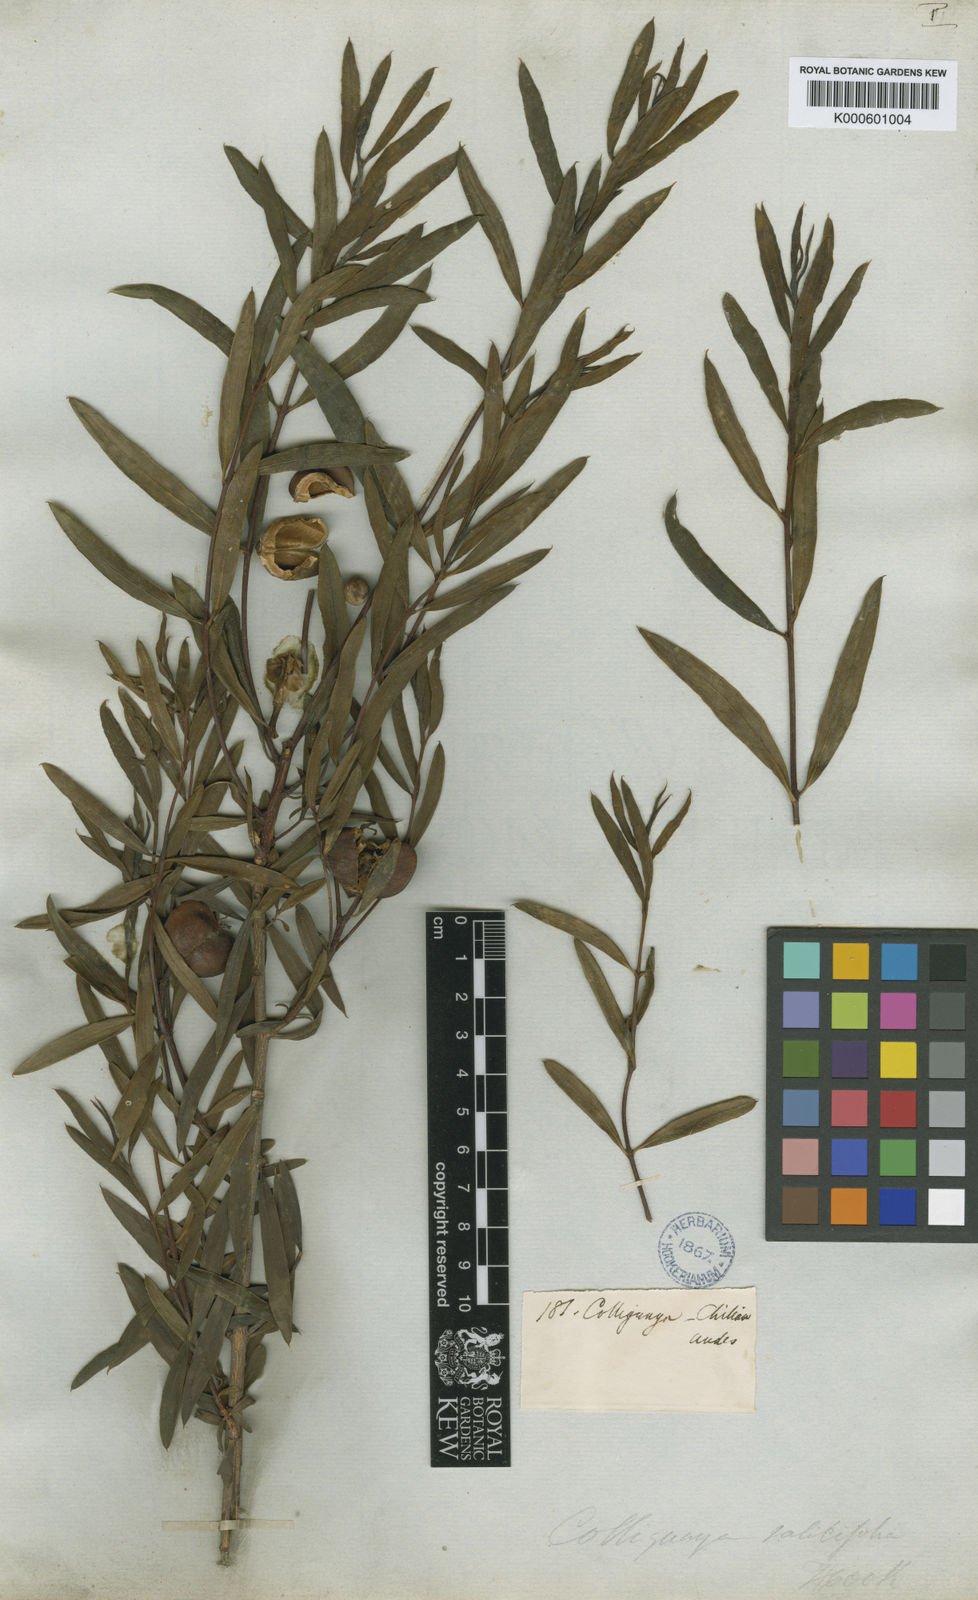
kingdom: Plantae
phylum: Tracheophyta
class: Magnoliopsida
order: Malpighiales
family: Euphorbiaceae
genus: Colliguaja
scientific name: Colliguaja salicifolia
